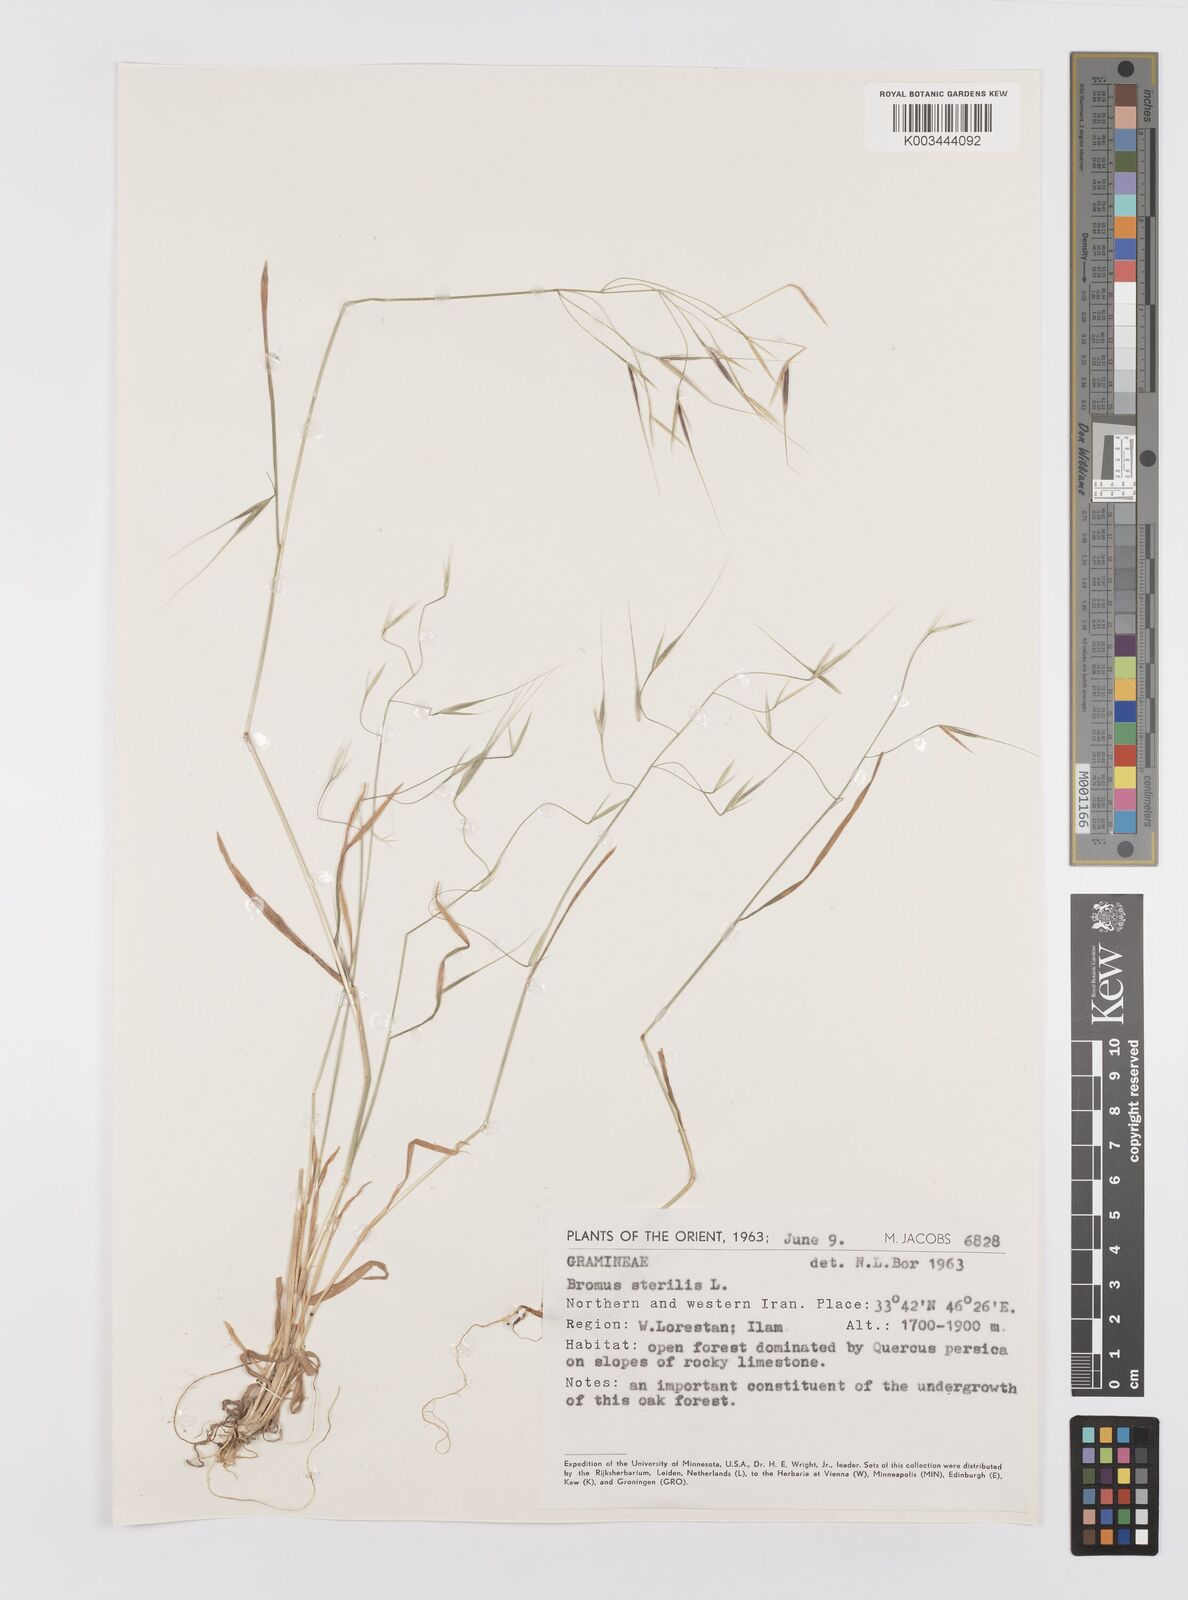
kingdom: Plantae
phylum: Tracheophyta
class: Liliopsida
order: Poales
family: Poaceae
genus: Bromus
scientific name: Bromus sterilis
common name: Poverty brome
